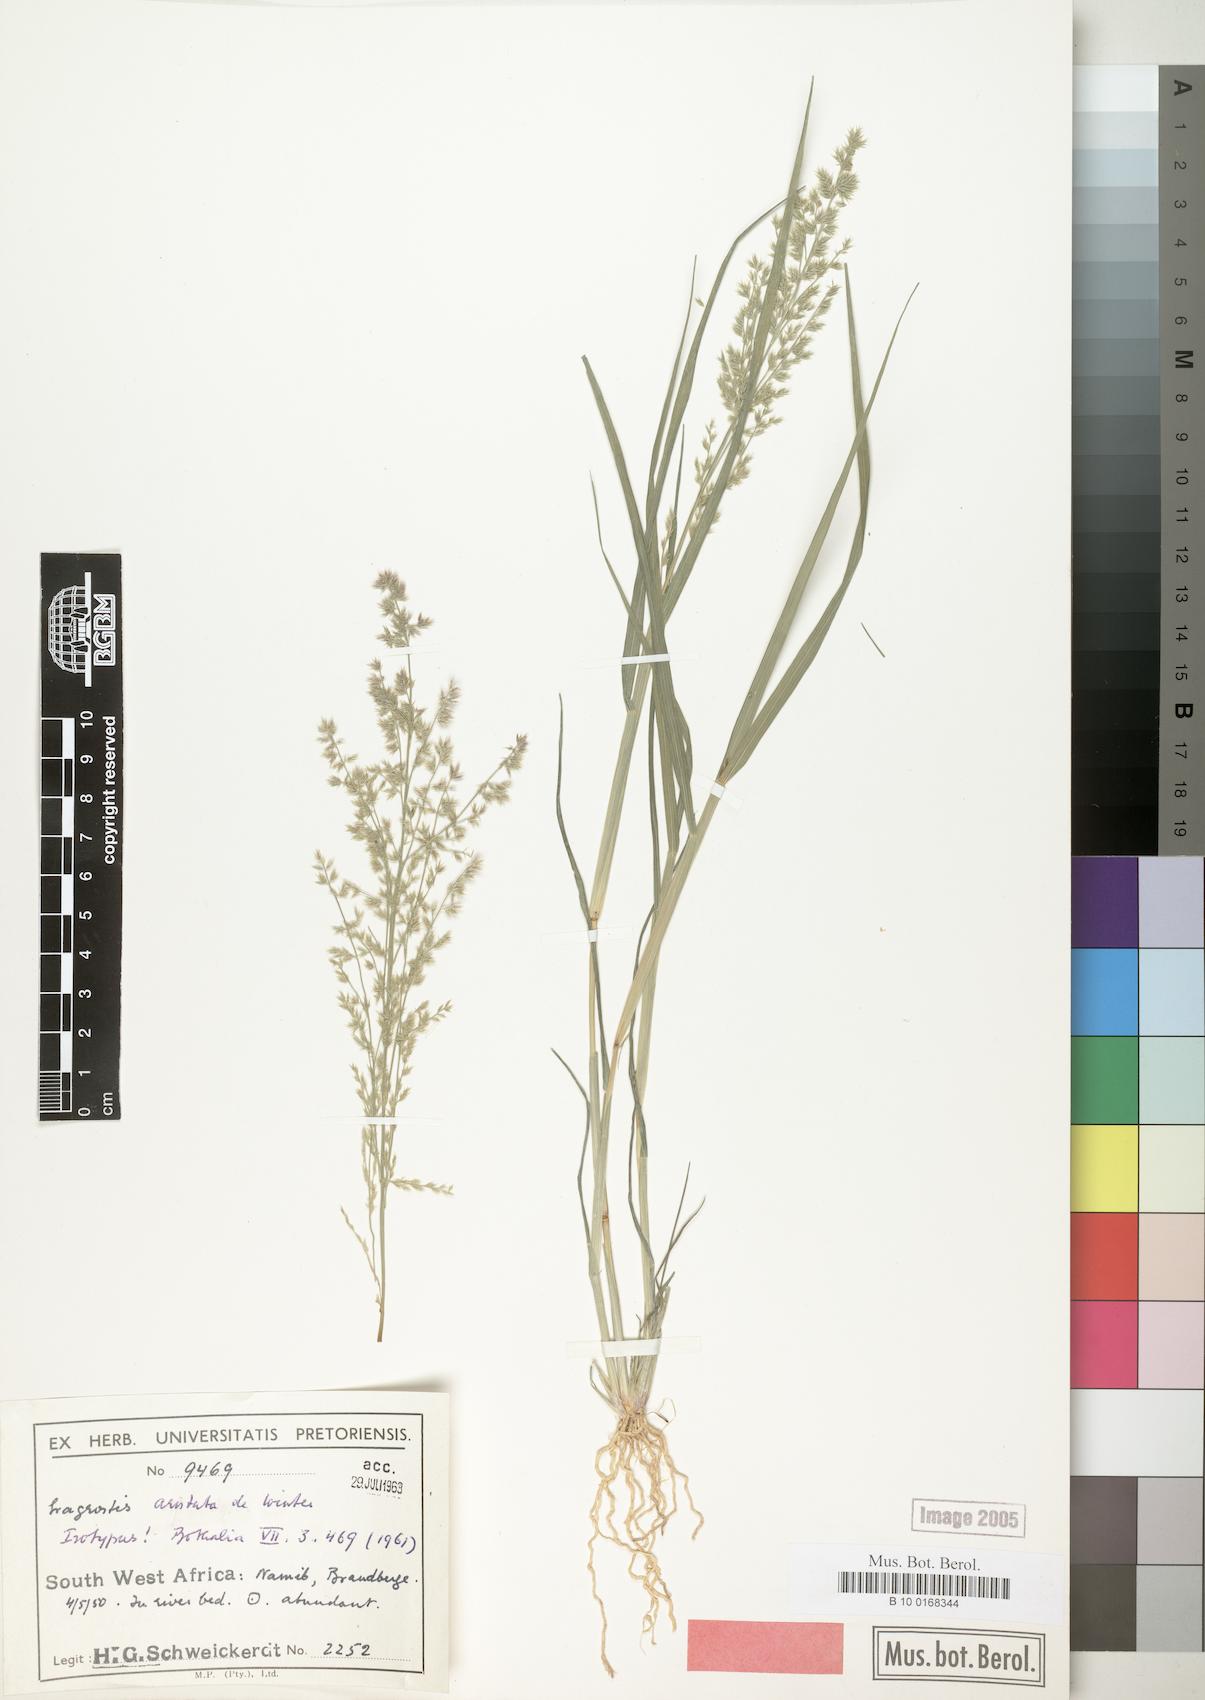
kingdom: Plantae
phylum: Tracheophyta
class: Liliopsida
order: Poales
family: Poaceae
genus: Eragrostis
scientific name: Eragrostis aristata
